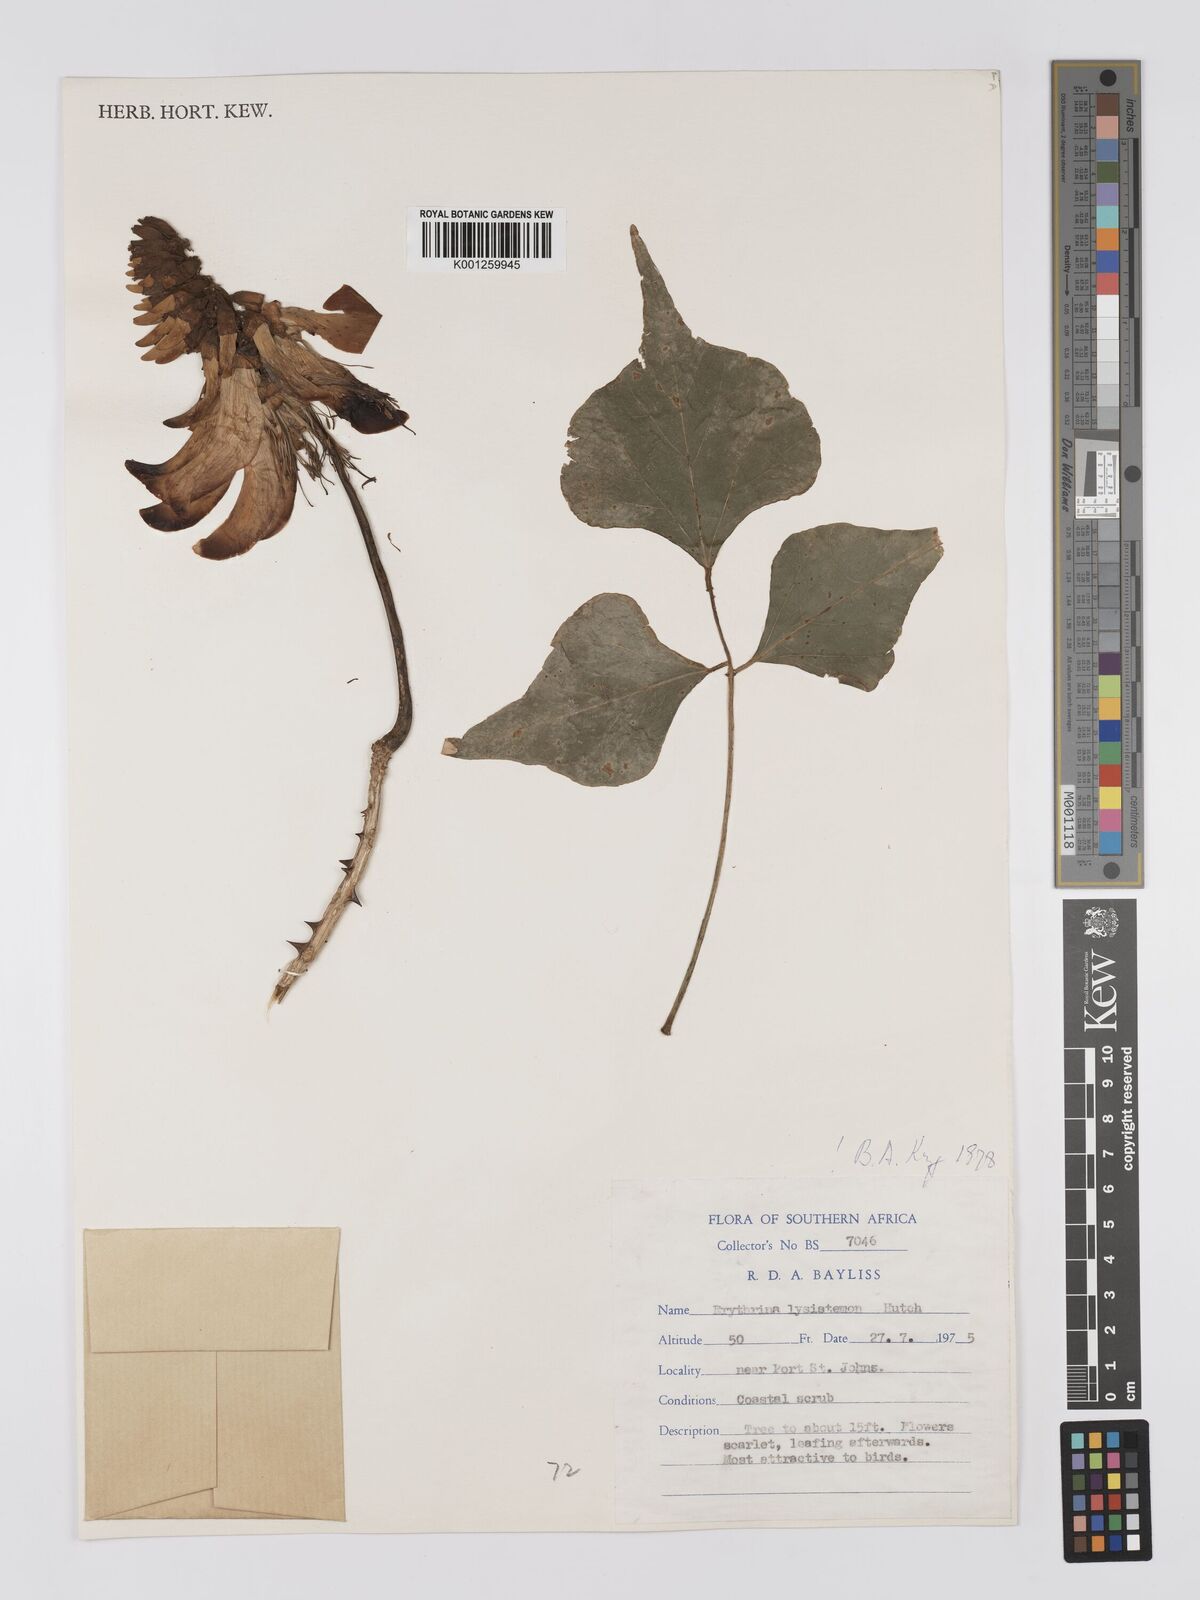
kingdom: Plantae
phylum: Tracheophyta
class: Magnoliopsida
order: Fabales
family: Fabaceae
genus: Erythrina
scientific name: Erythrina lysistemon
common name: Common coral tree
